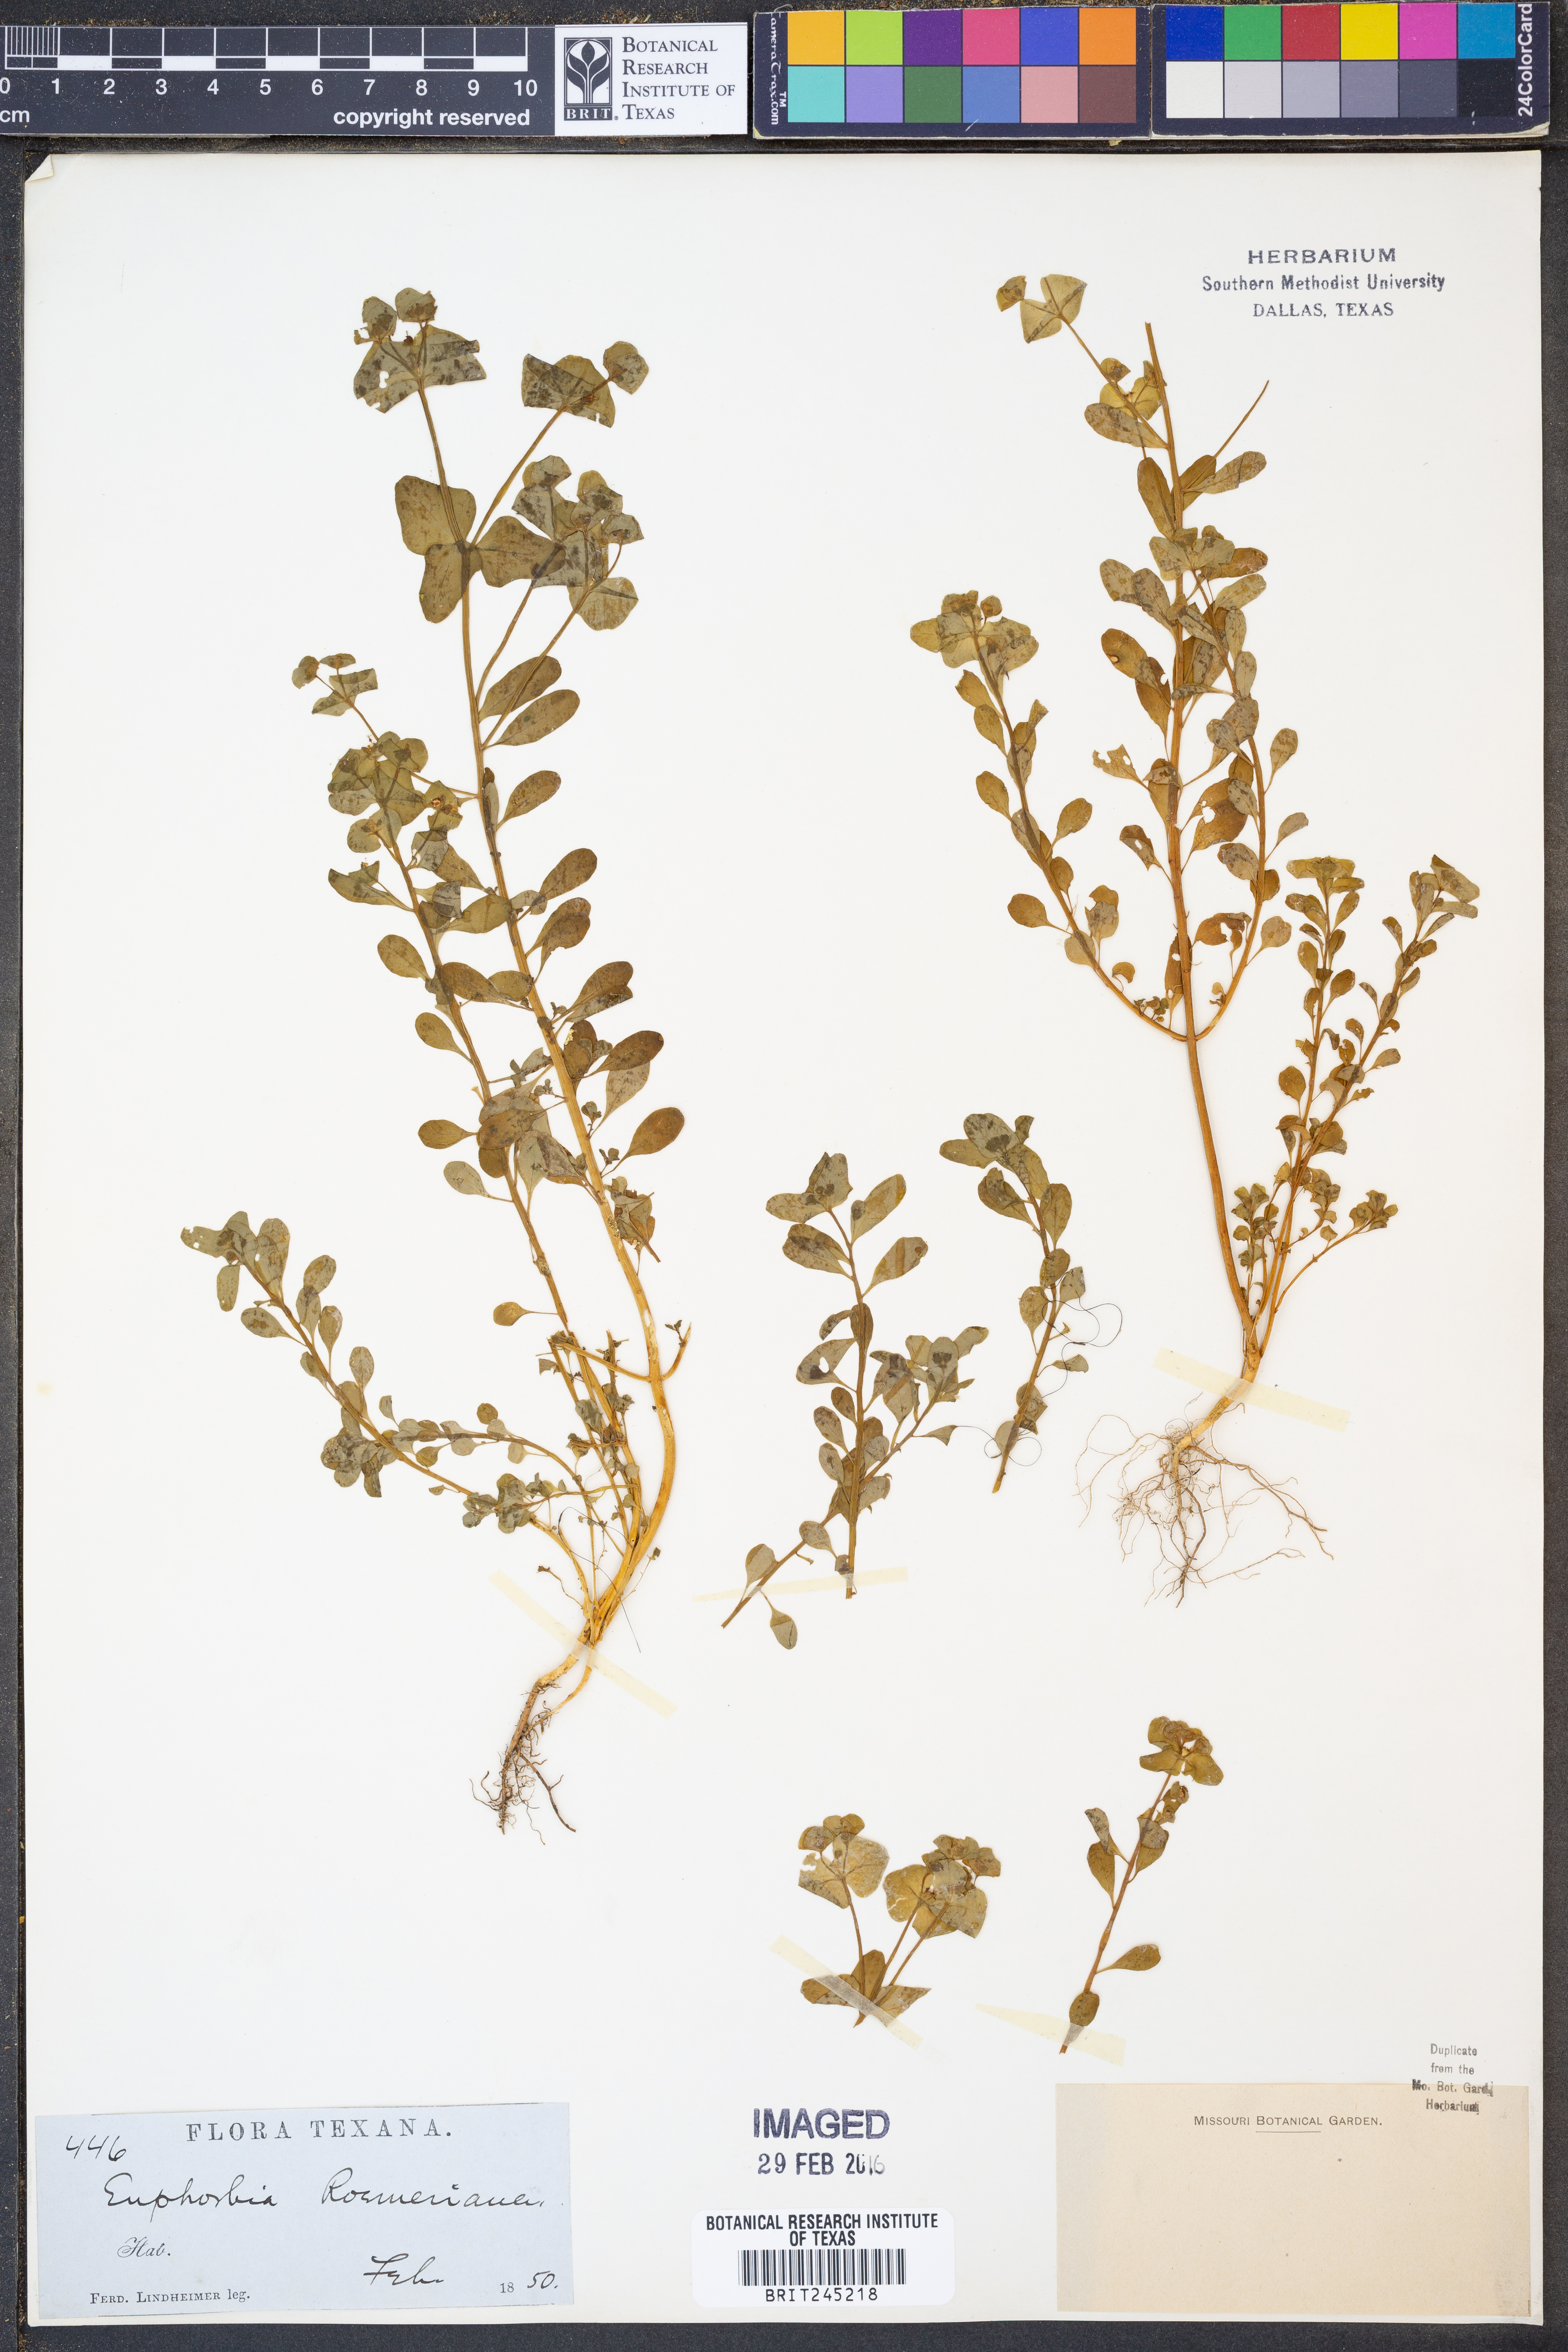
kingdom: Plantae
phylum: Tracheophyta
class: Magnoliopsida
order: Malpighiales
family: Euphorbiaceae
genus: Euphorbia
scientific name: Euphorbia roemeriana
